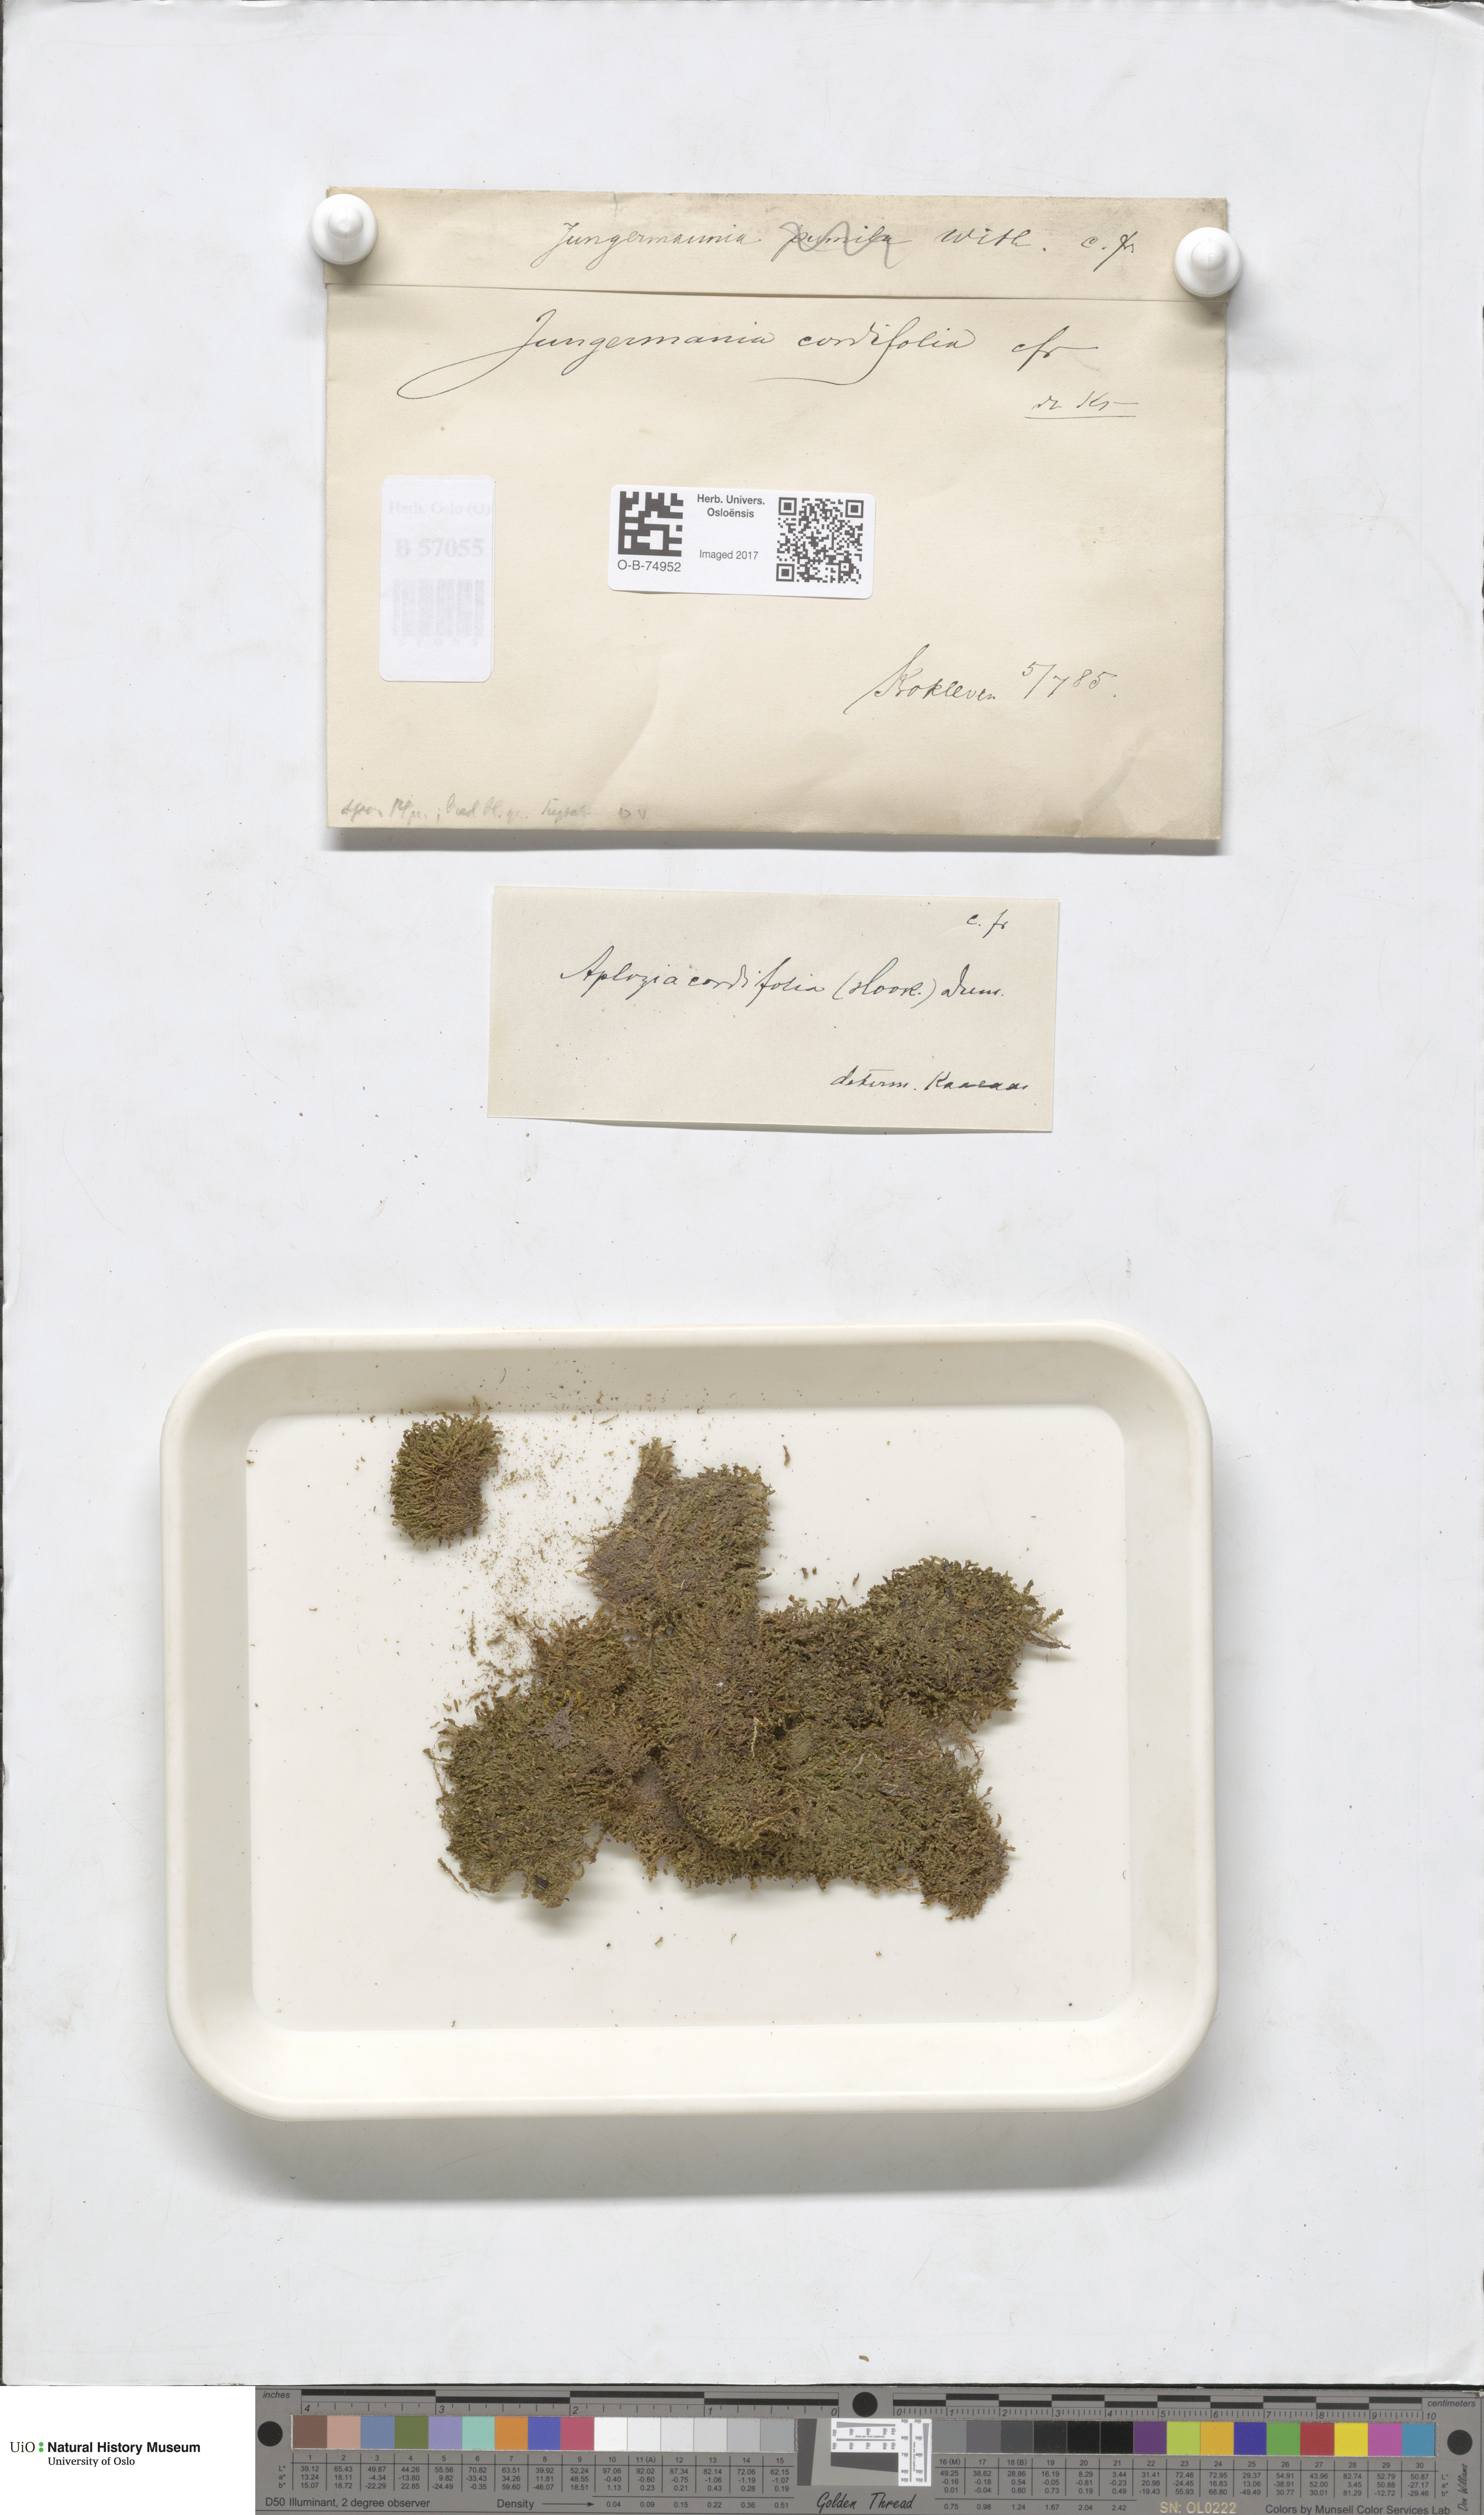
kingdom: Plantae
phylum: Marchantiophyta
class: Jungermanniopsida
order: Jungermanniales
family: Jungermanniaceae
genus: Jungermannia
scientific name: Jungermannia eucordifolia
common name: Cordate flapwort
